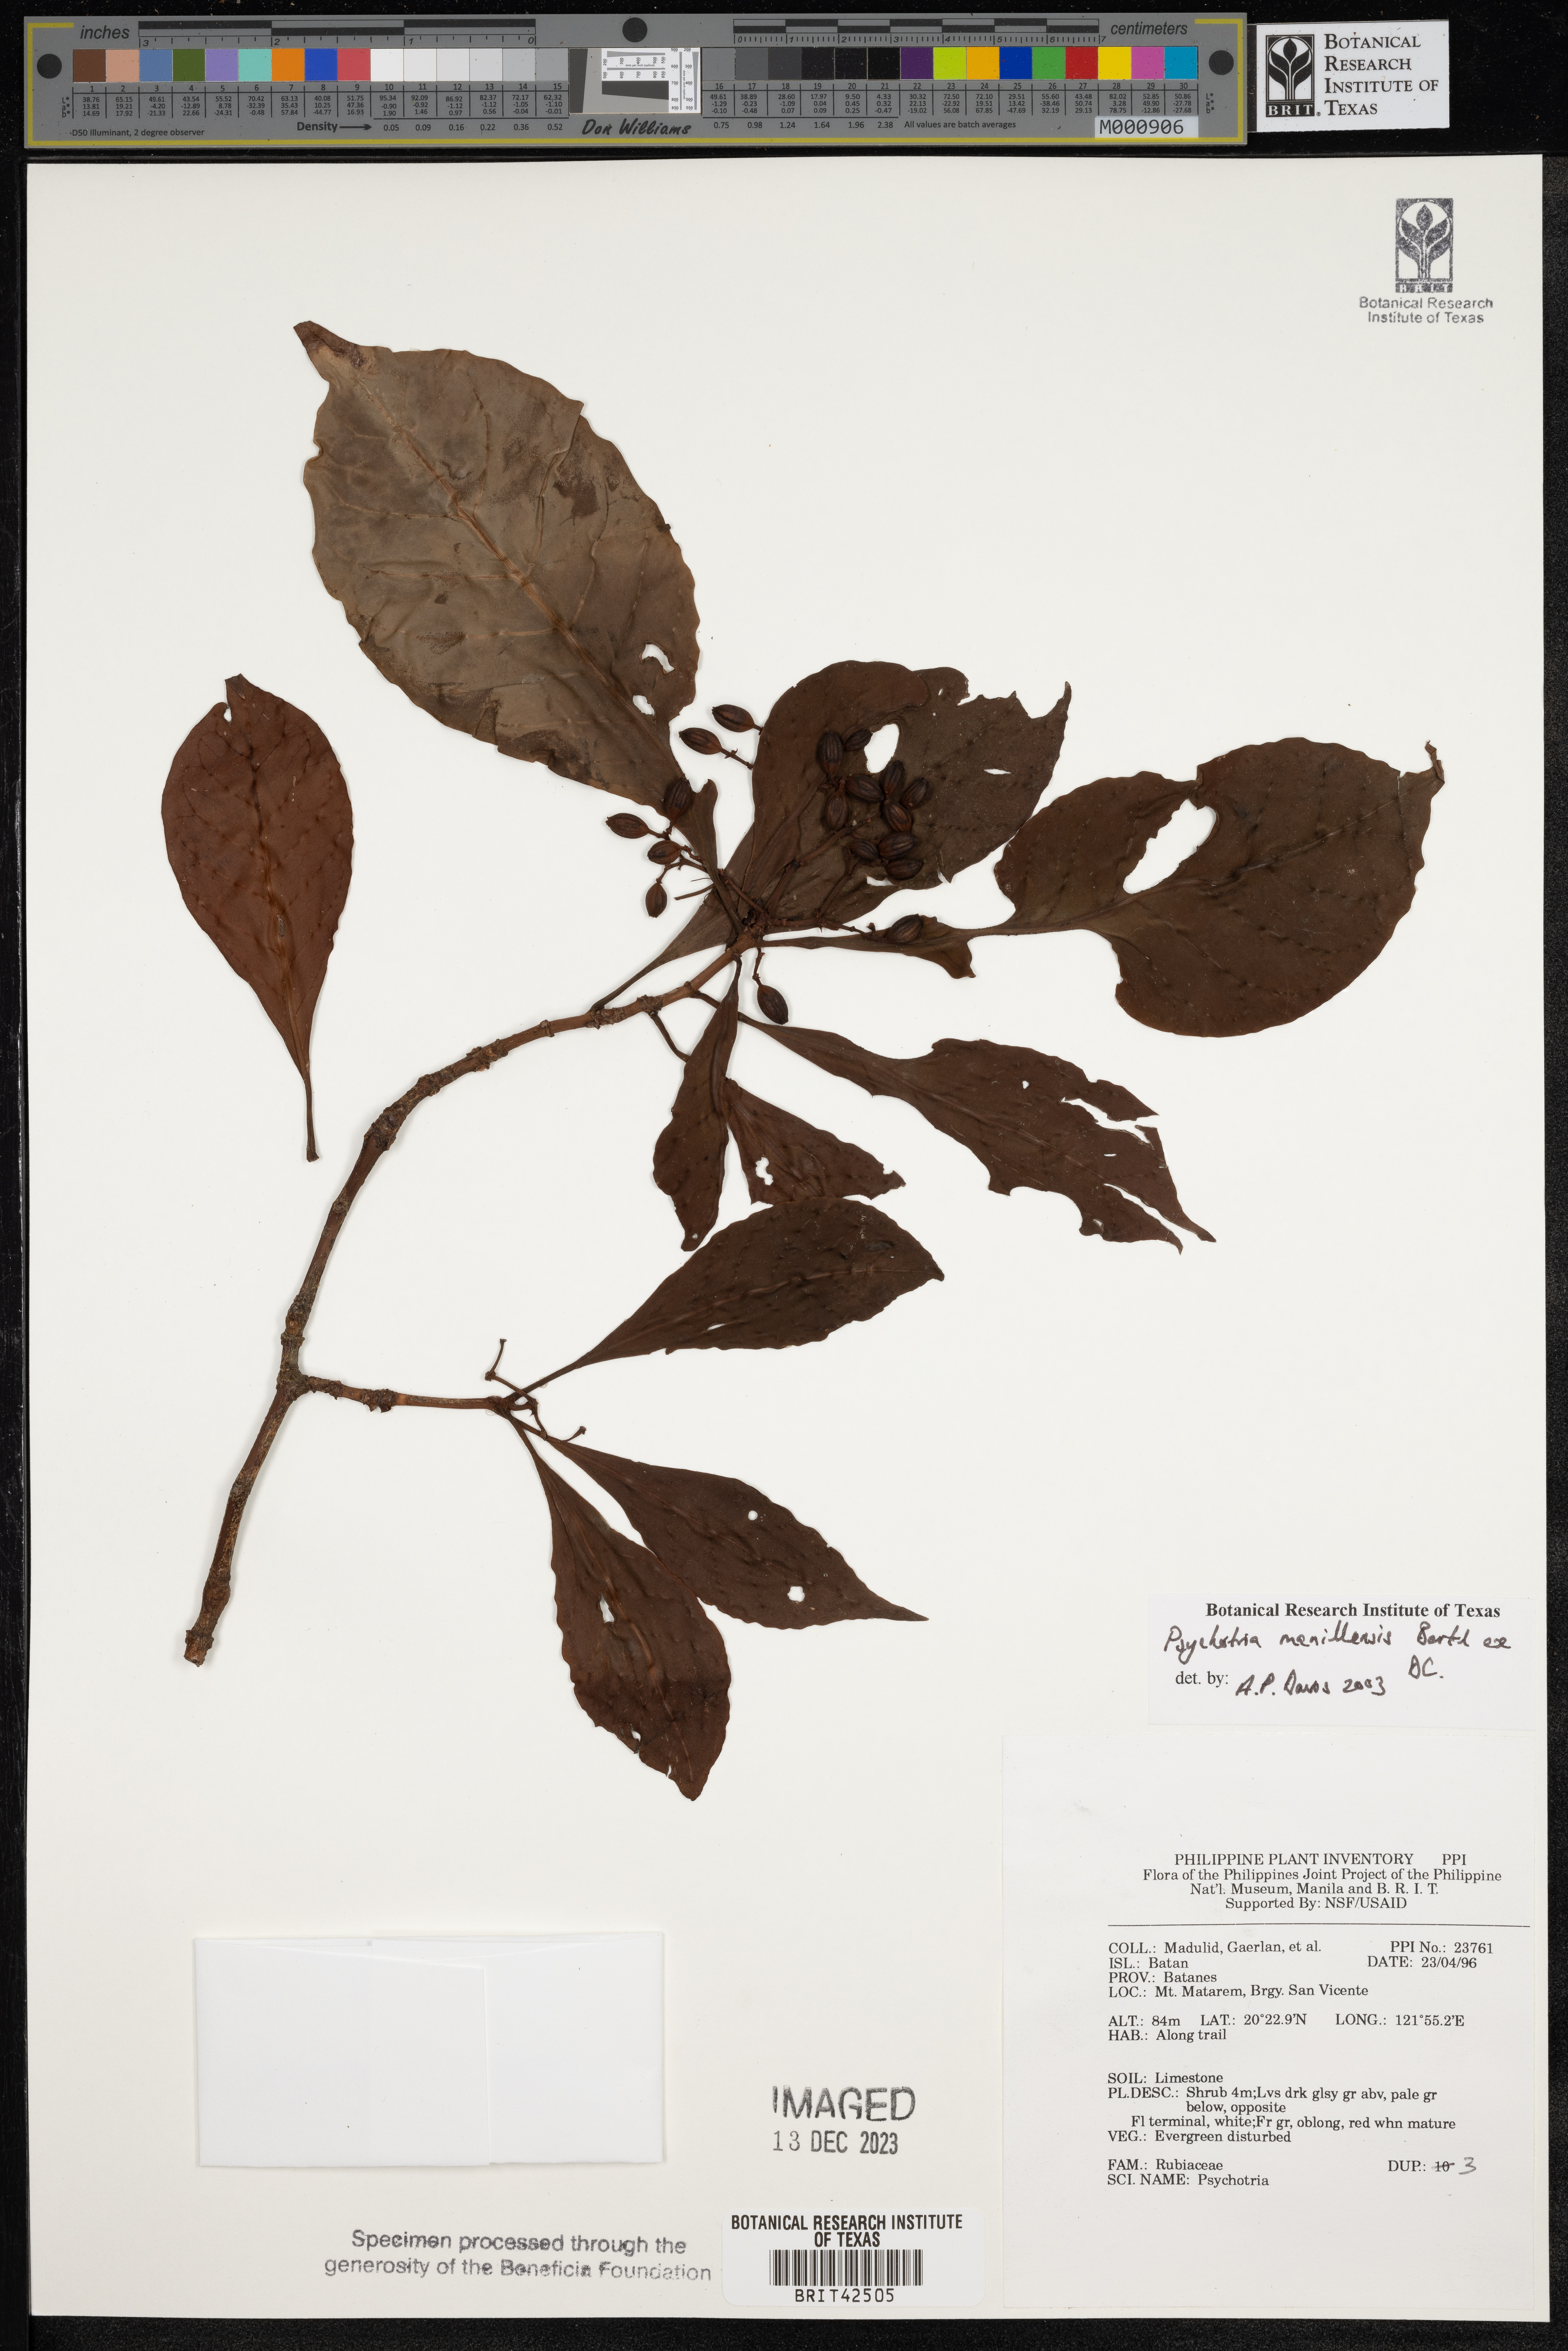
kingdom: Plantae
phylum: Tracheophyta
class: Magnoliopsida
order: Gentianales
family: Rubiaceae
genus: Psychotria
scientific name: Psychotria manillensis
